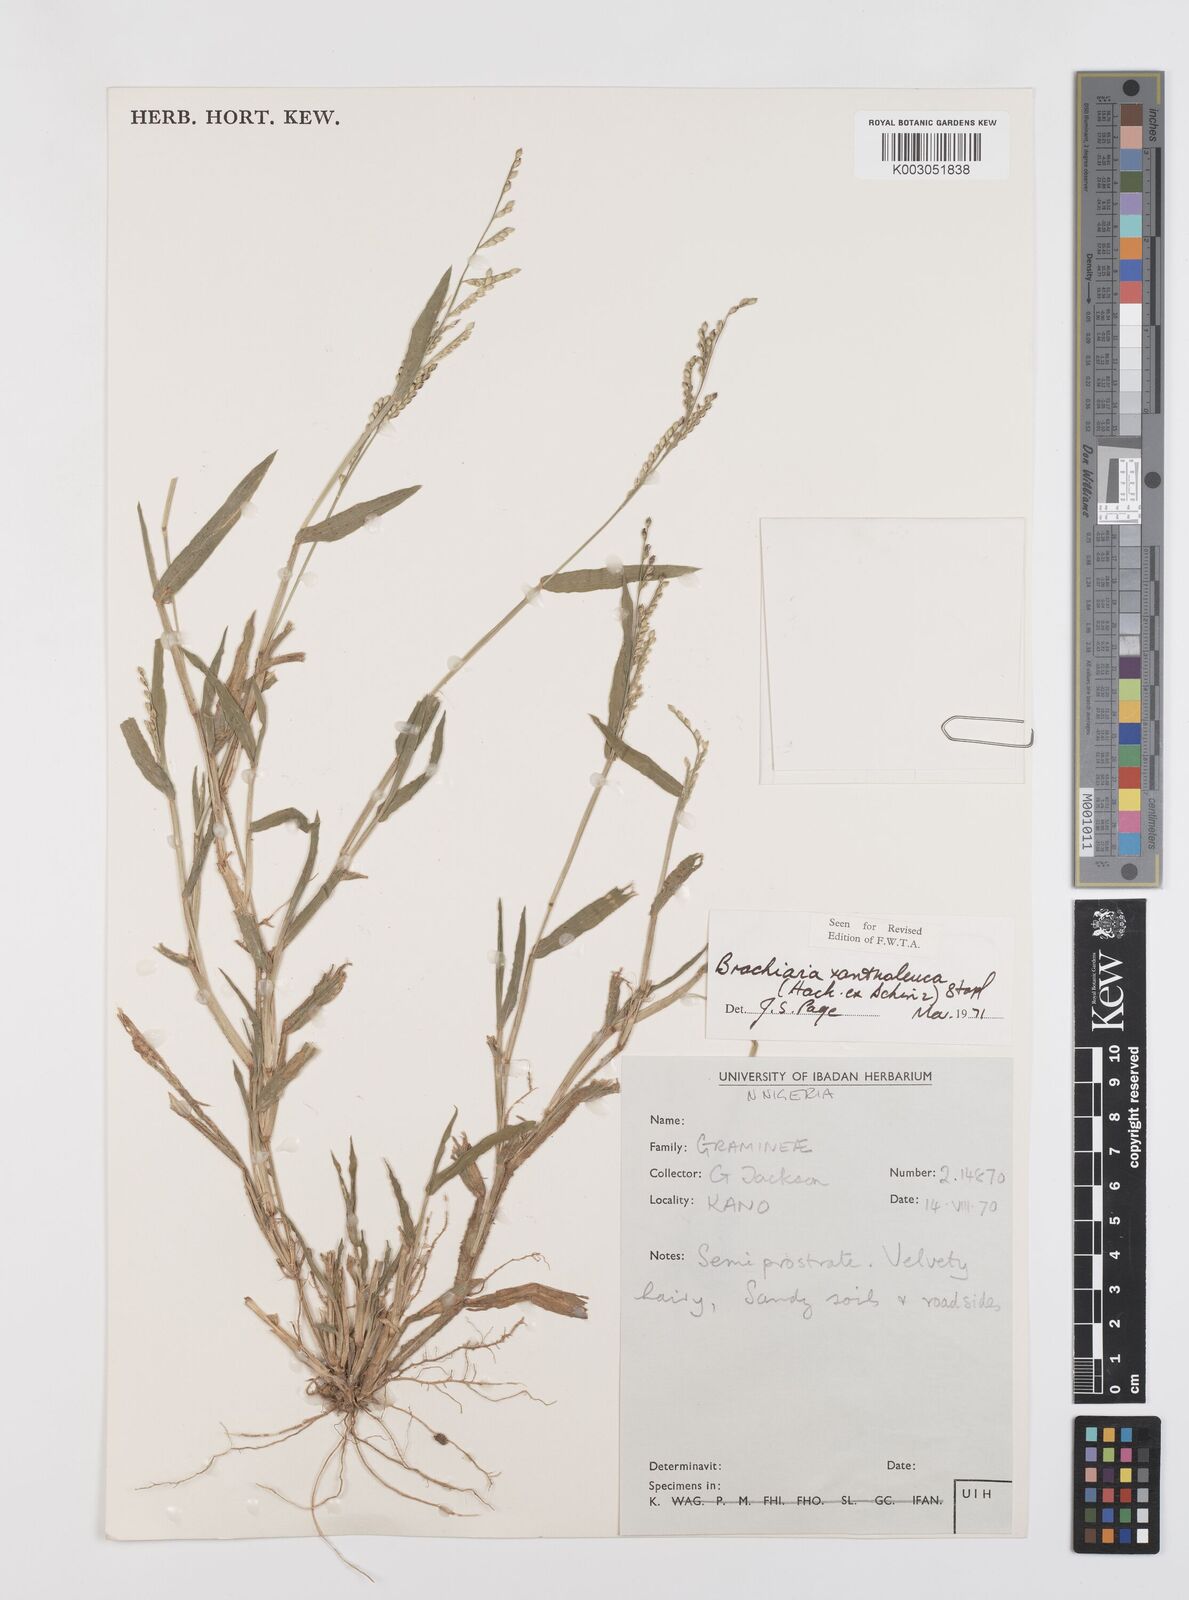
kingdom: Plantae
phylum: Tracheophyta
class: Liliopsida
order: Poales
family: Poaceae
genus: Urochloa
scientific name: Urochloa xantholeuca
